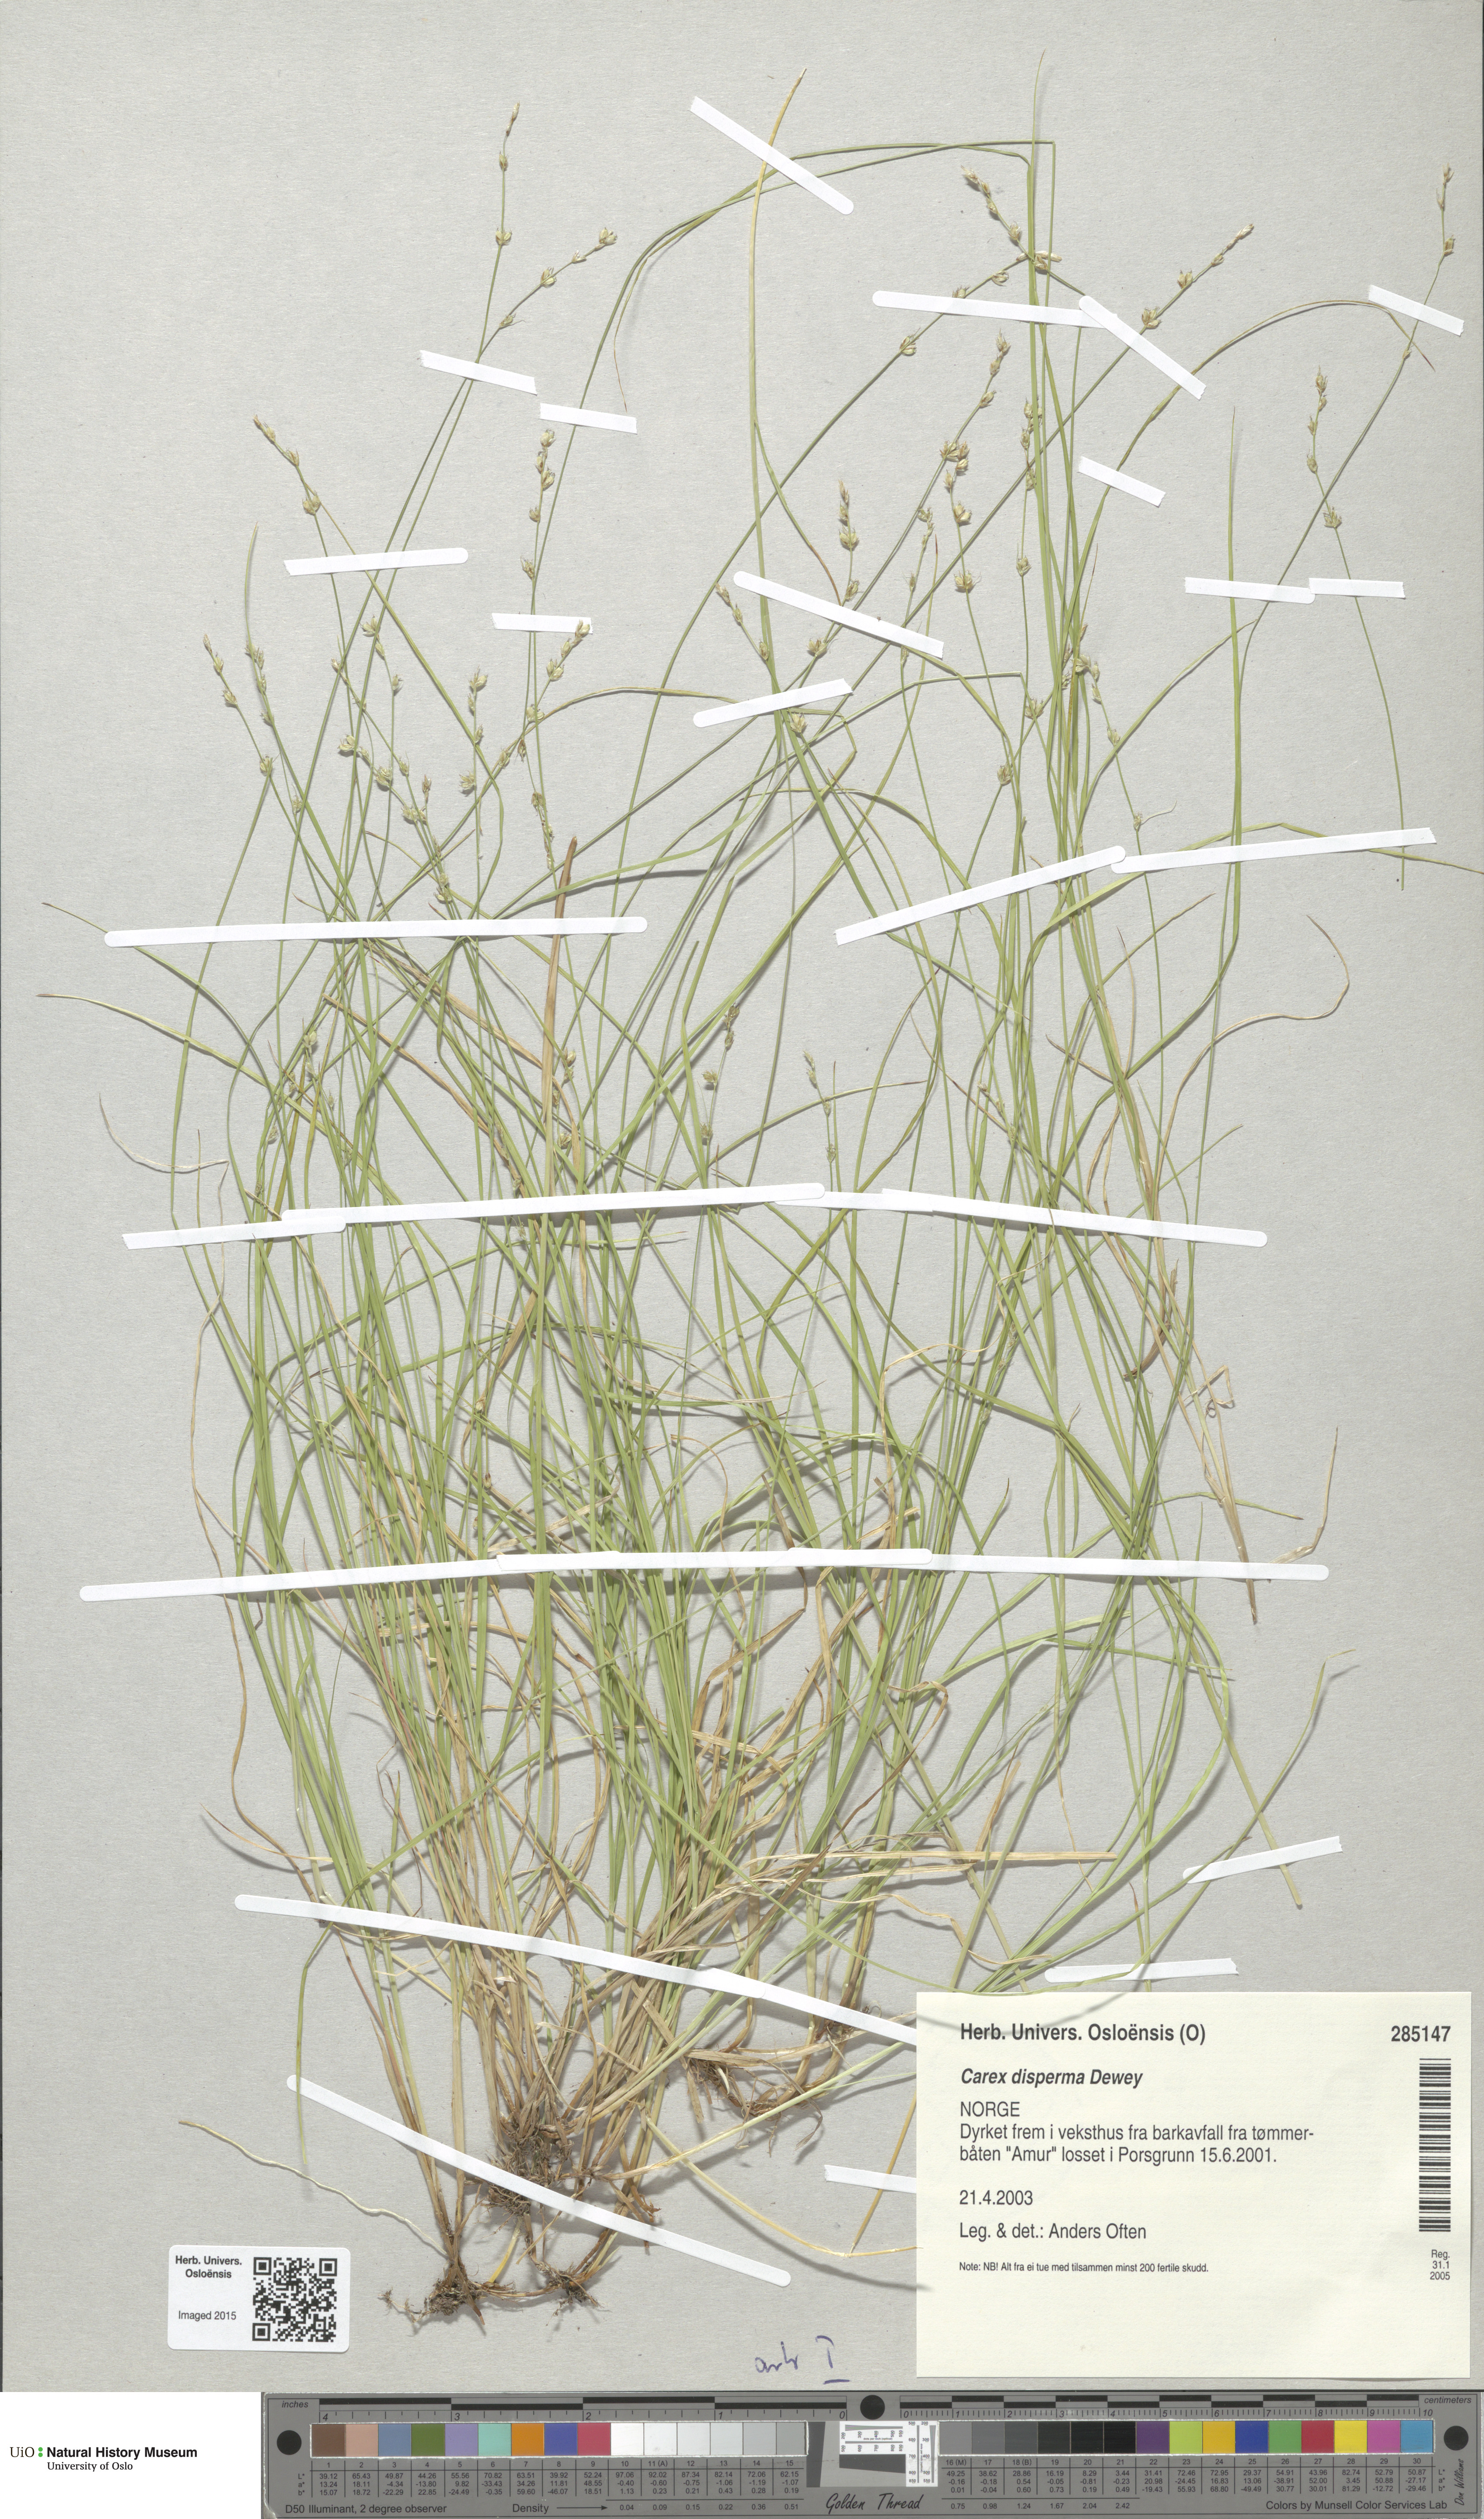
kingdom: Plantae
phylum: Tracheophyta
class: Liliopsida
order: Poales
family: Cyperaceae
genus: Carex
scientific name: Carex disperma
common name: Short-leaved sedge
